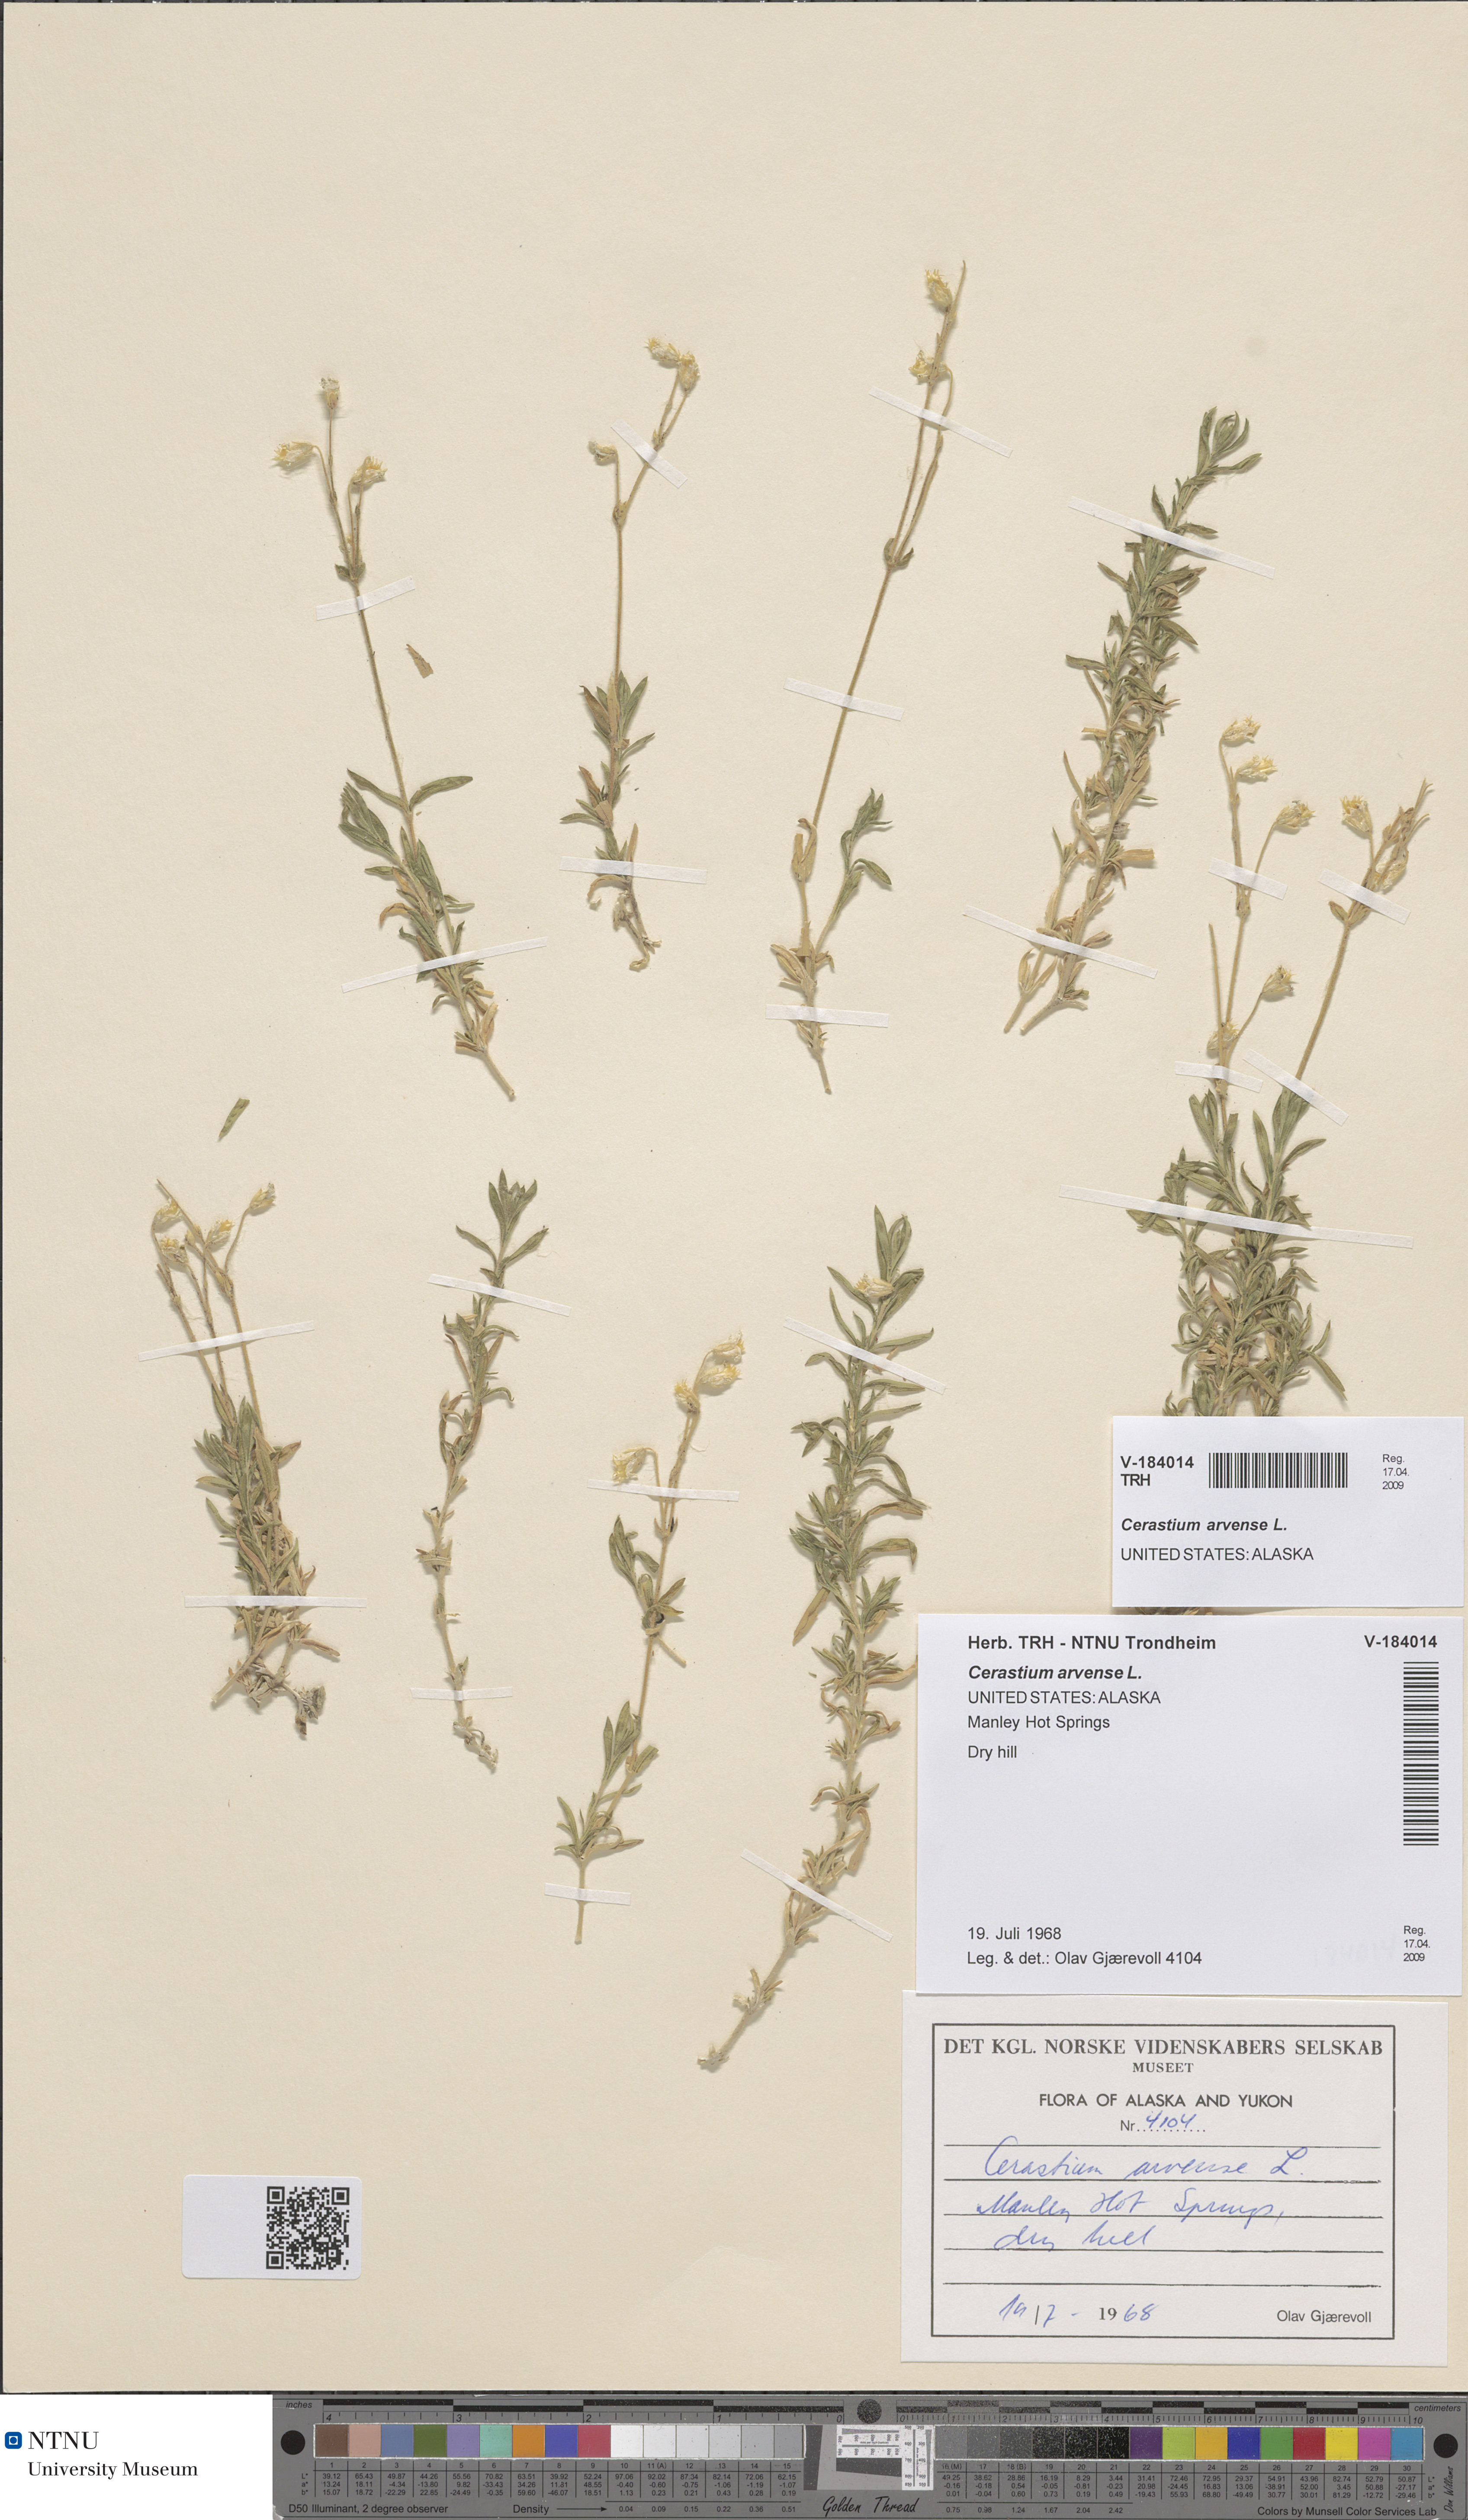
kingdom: Plantae
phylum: Tracheophyta
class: Magnoliopsida
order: Caryophyllales
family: Caryophyllaceae
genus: Cerastium
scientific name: Cerastium arvense
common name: Field mouse-ear
